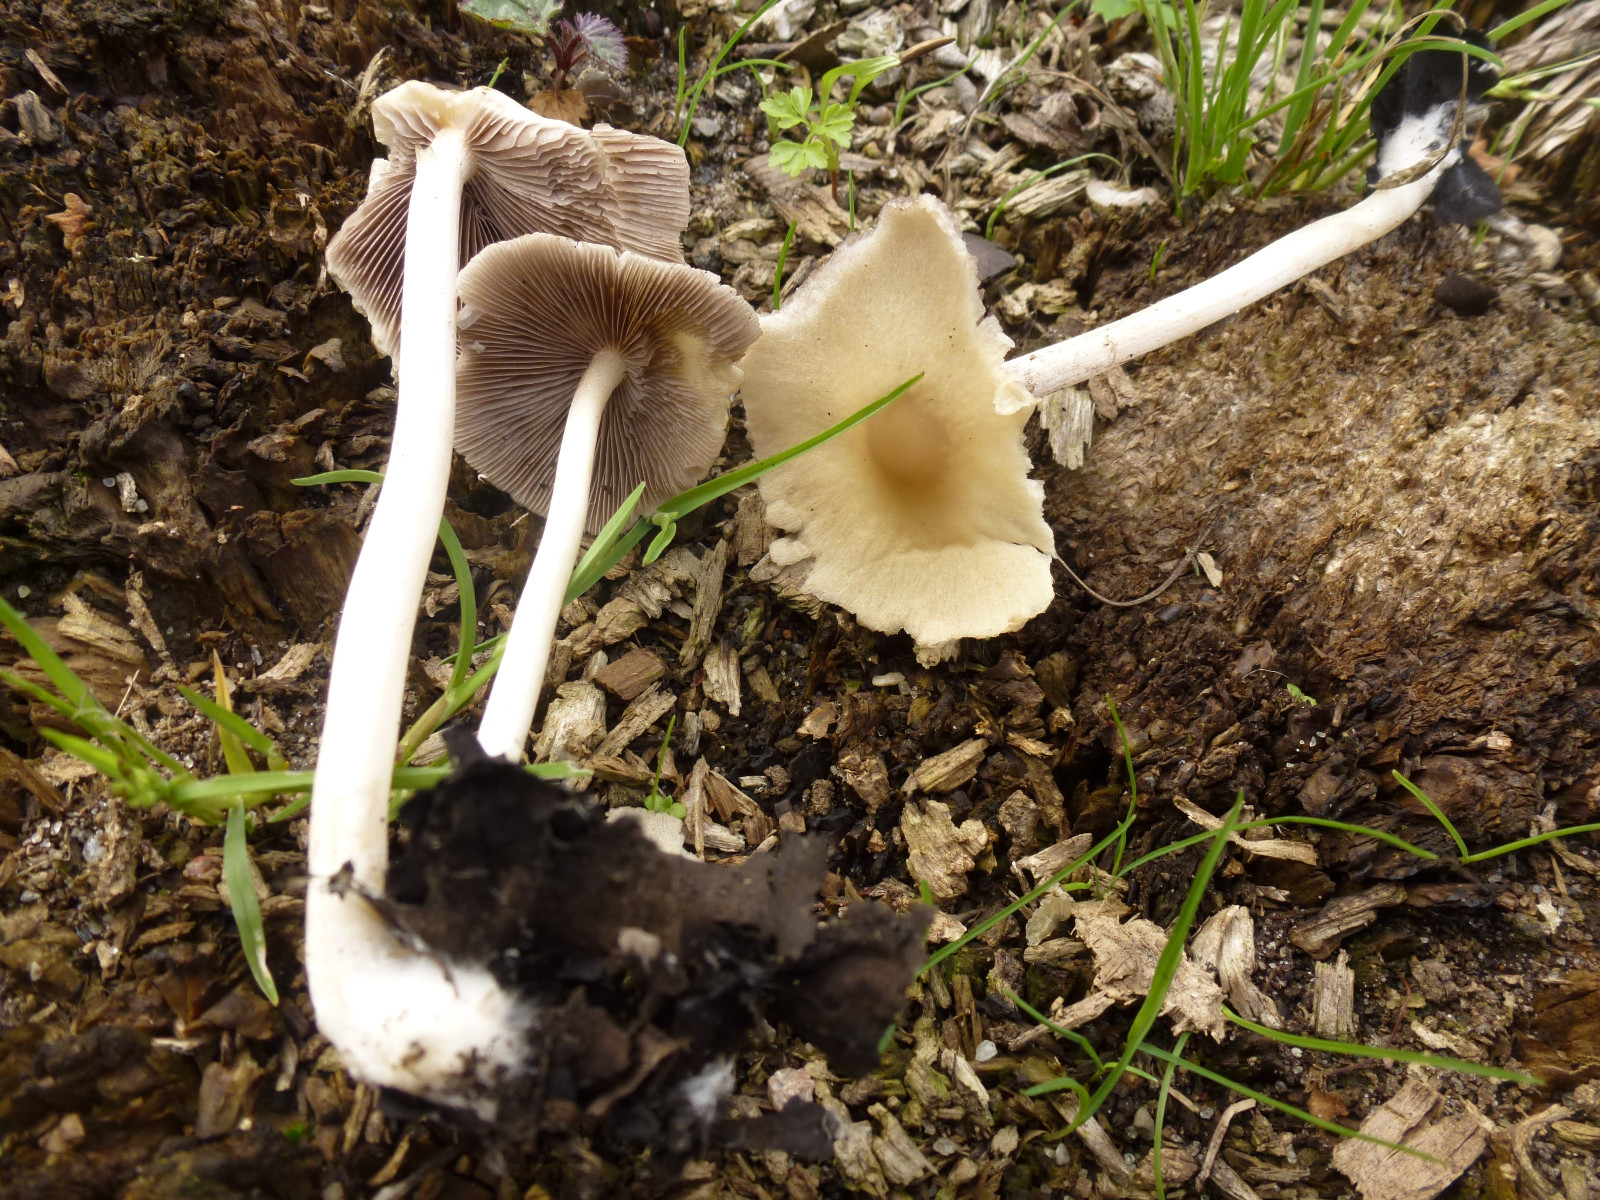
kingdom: Fungi
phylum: Basidiomycota
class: Agaricomycetes
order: Agaricales
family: Psathyrellaceae
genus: Candolleomyces
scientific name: Candolleomyces candolleanus
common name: Candolles mørkhat
